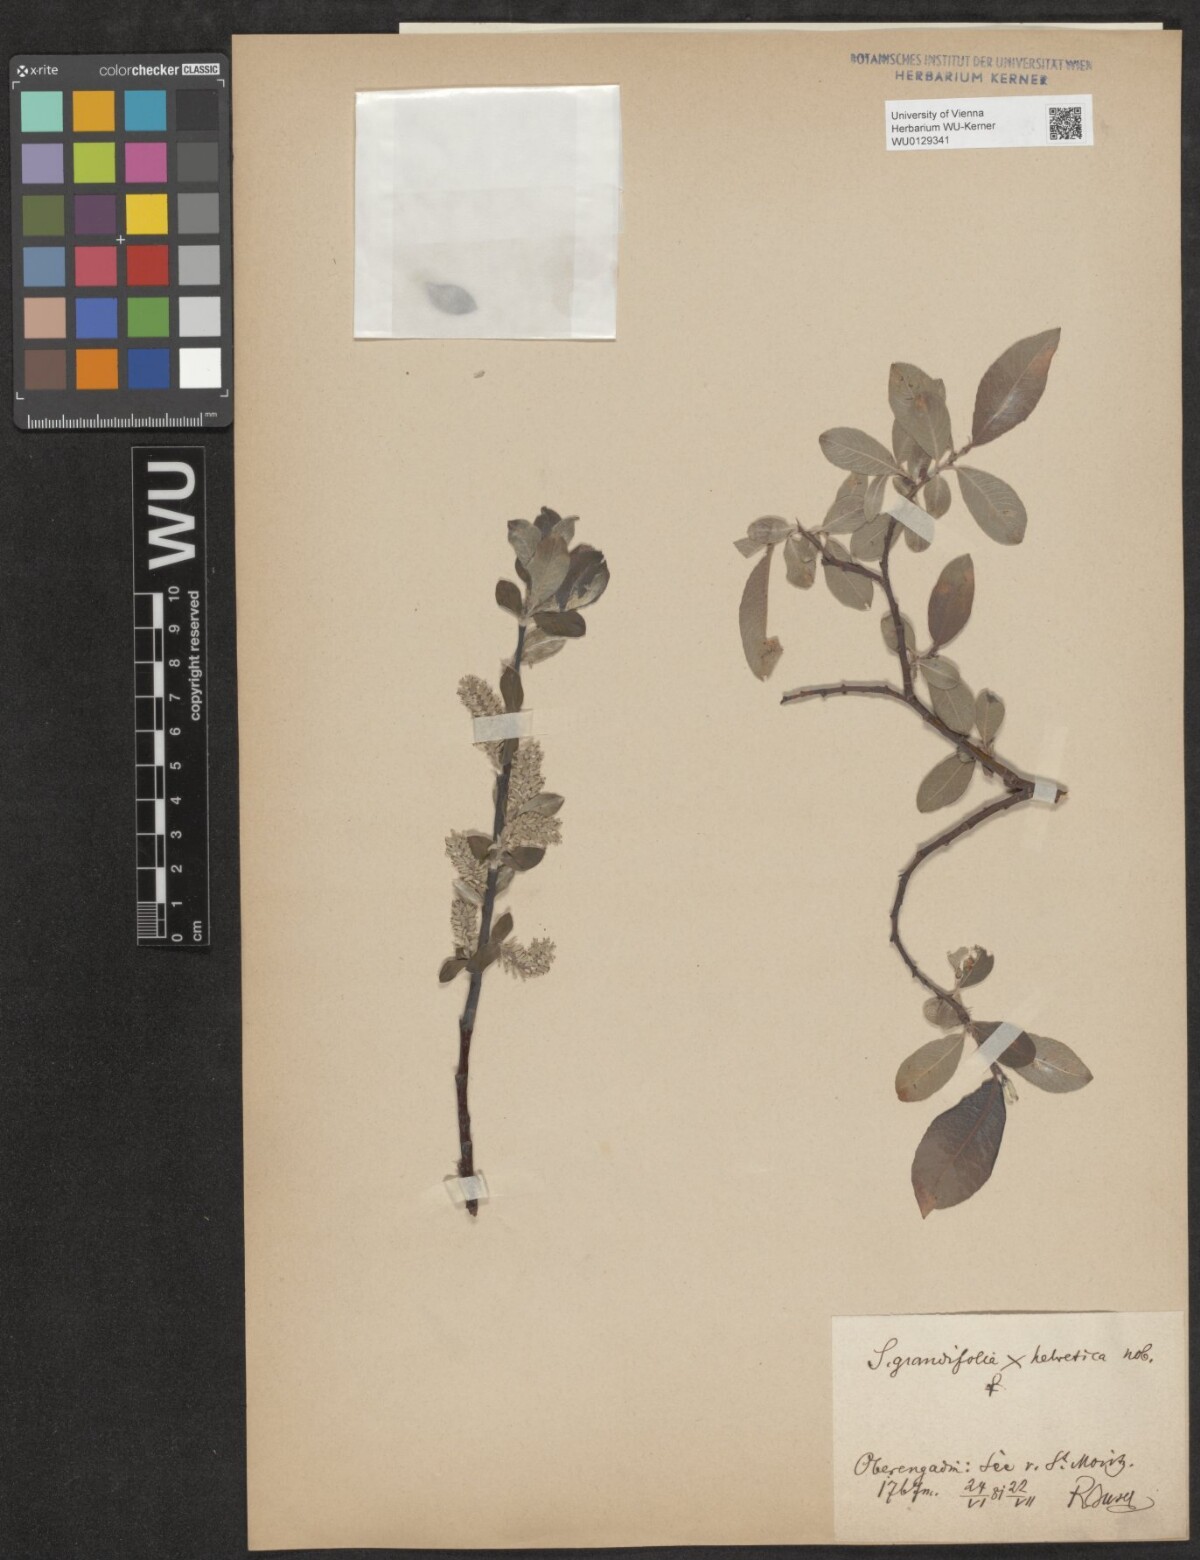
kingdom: Plantae
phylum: Tracheophyta
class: Magnoliopsida
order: Malpighiales
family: Salicaceae
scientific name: Salicaceae
